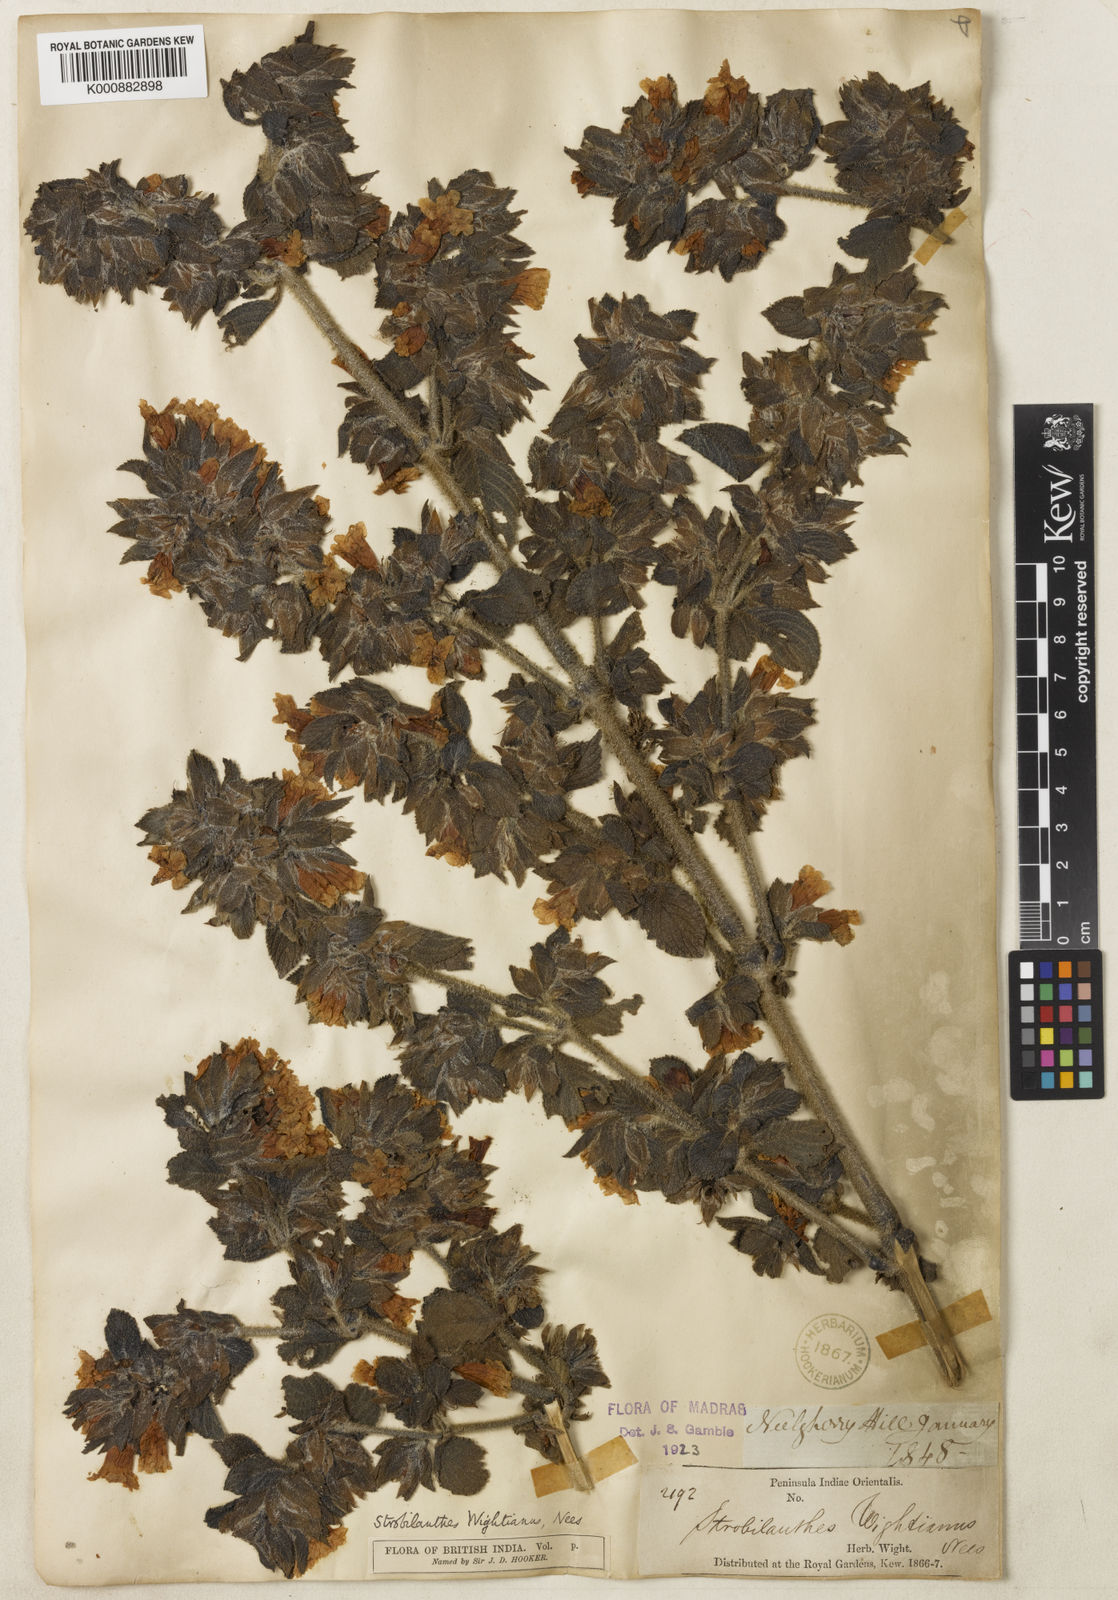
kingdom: Plantae
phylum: Tracheophyta
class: Magnoliopsida
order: Lamiales
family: Acanthaceae
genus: Strobilanthes
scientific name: Strobilanthes wightiana
